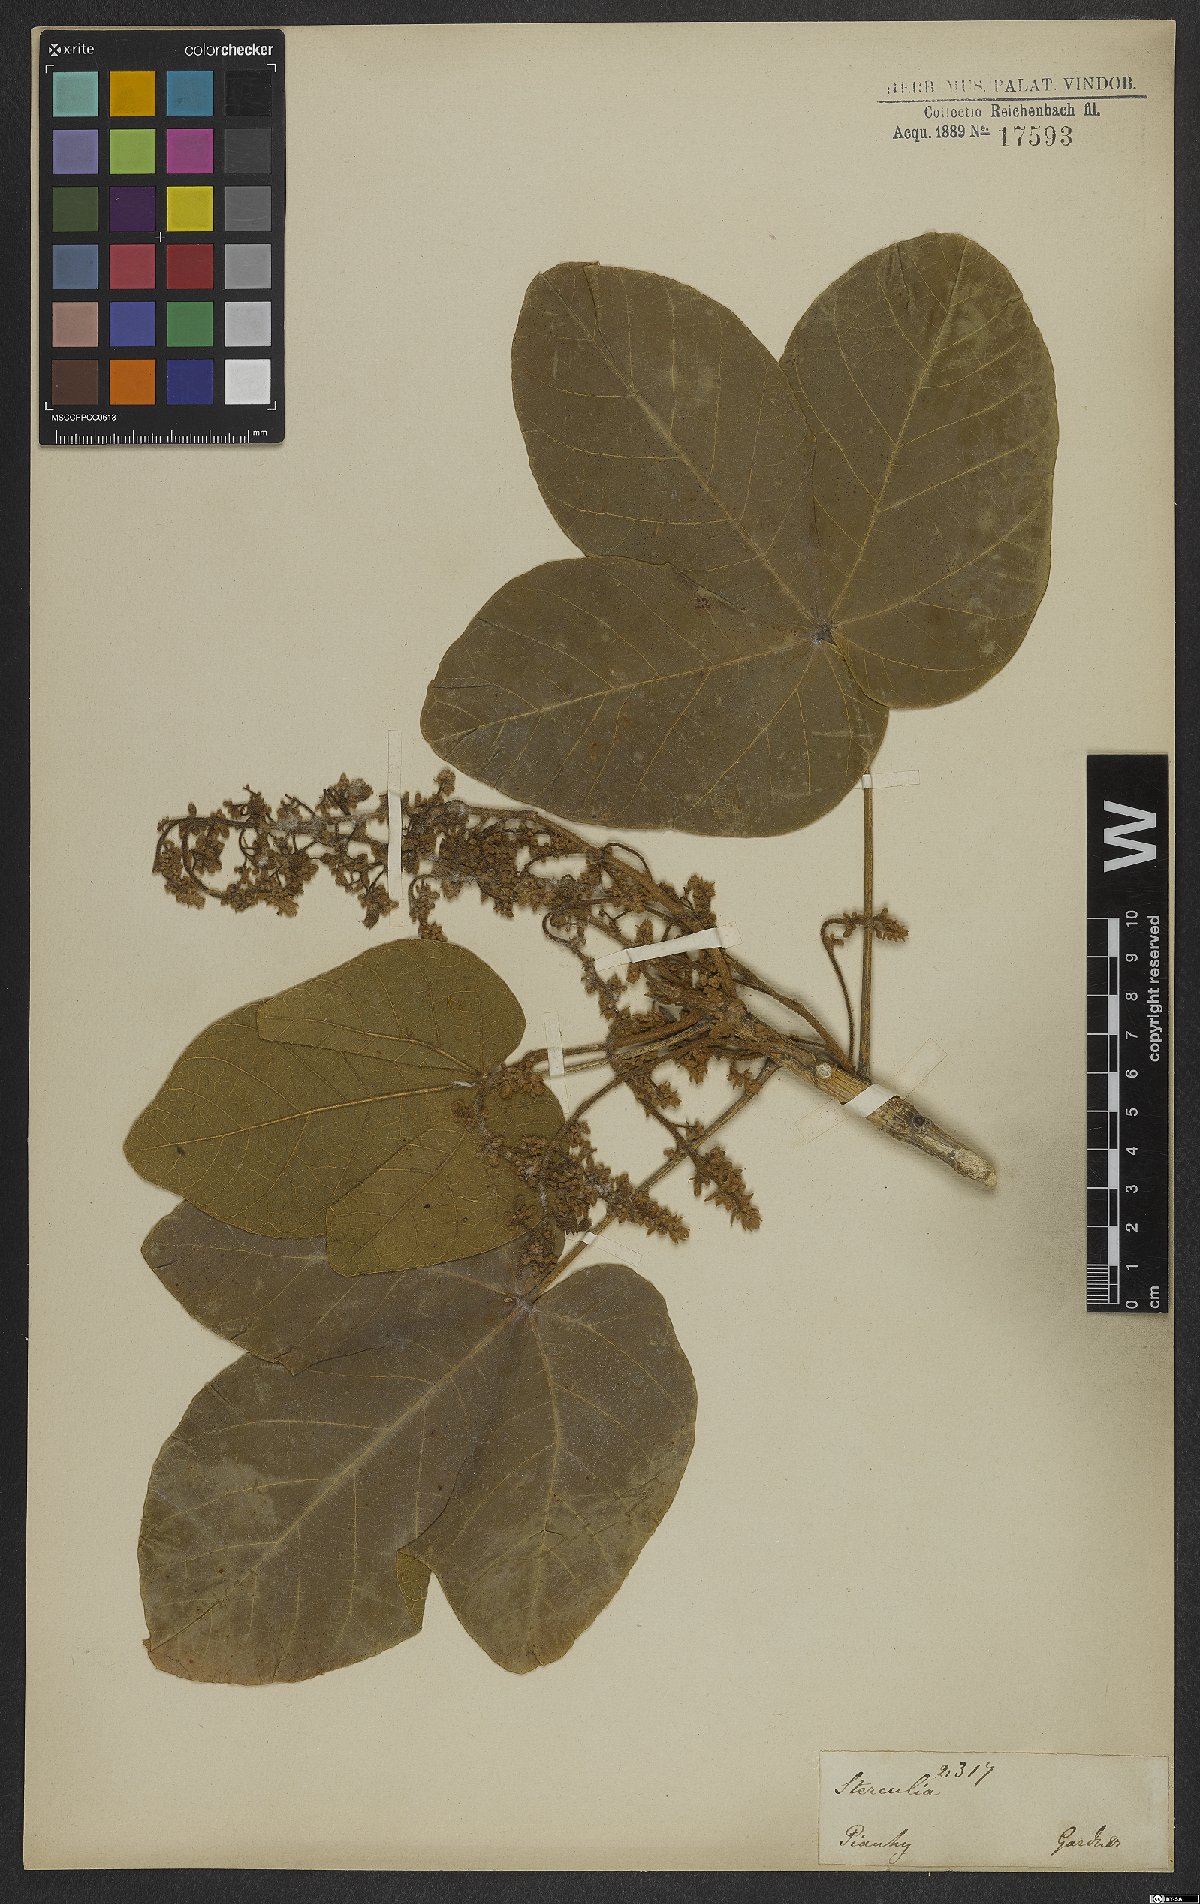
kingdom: Plantae
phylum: Tracheophyta
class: Magnoliopsida
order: Malvales
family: Malvaceae
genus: Sterculia
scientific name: Sterculia
